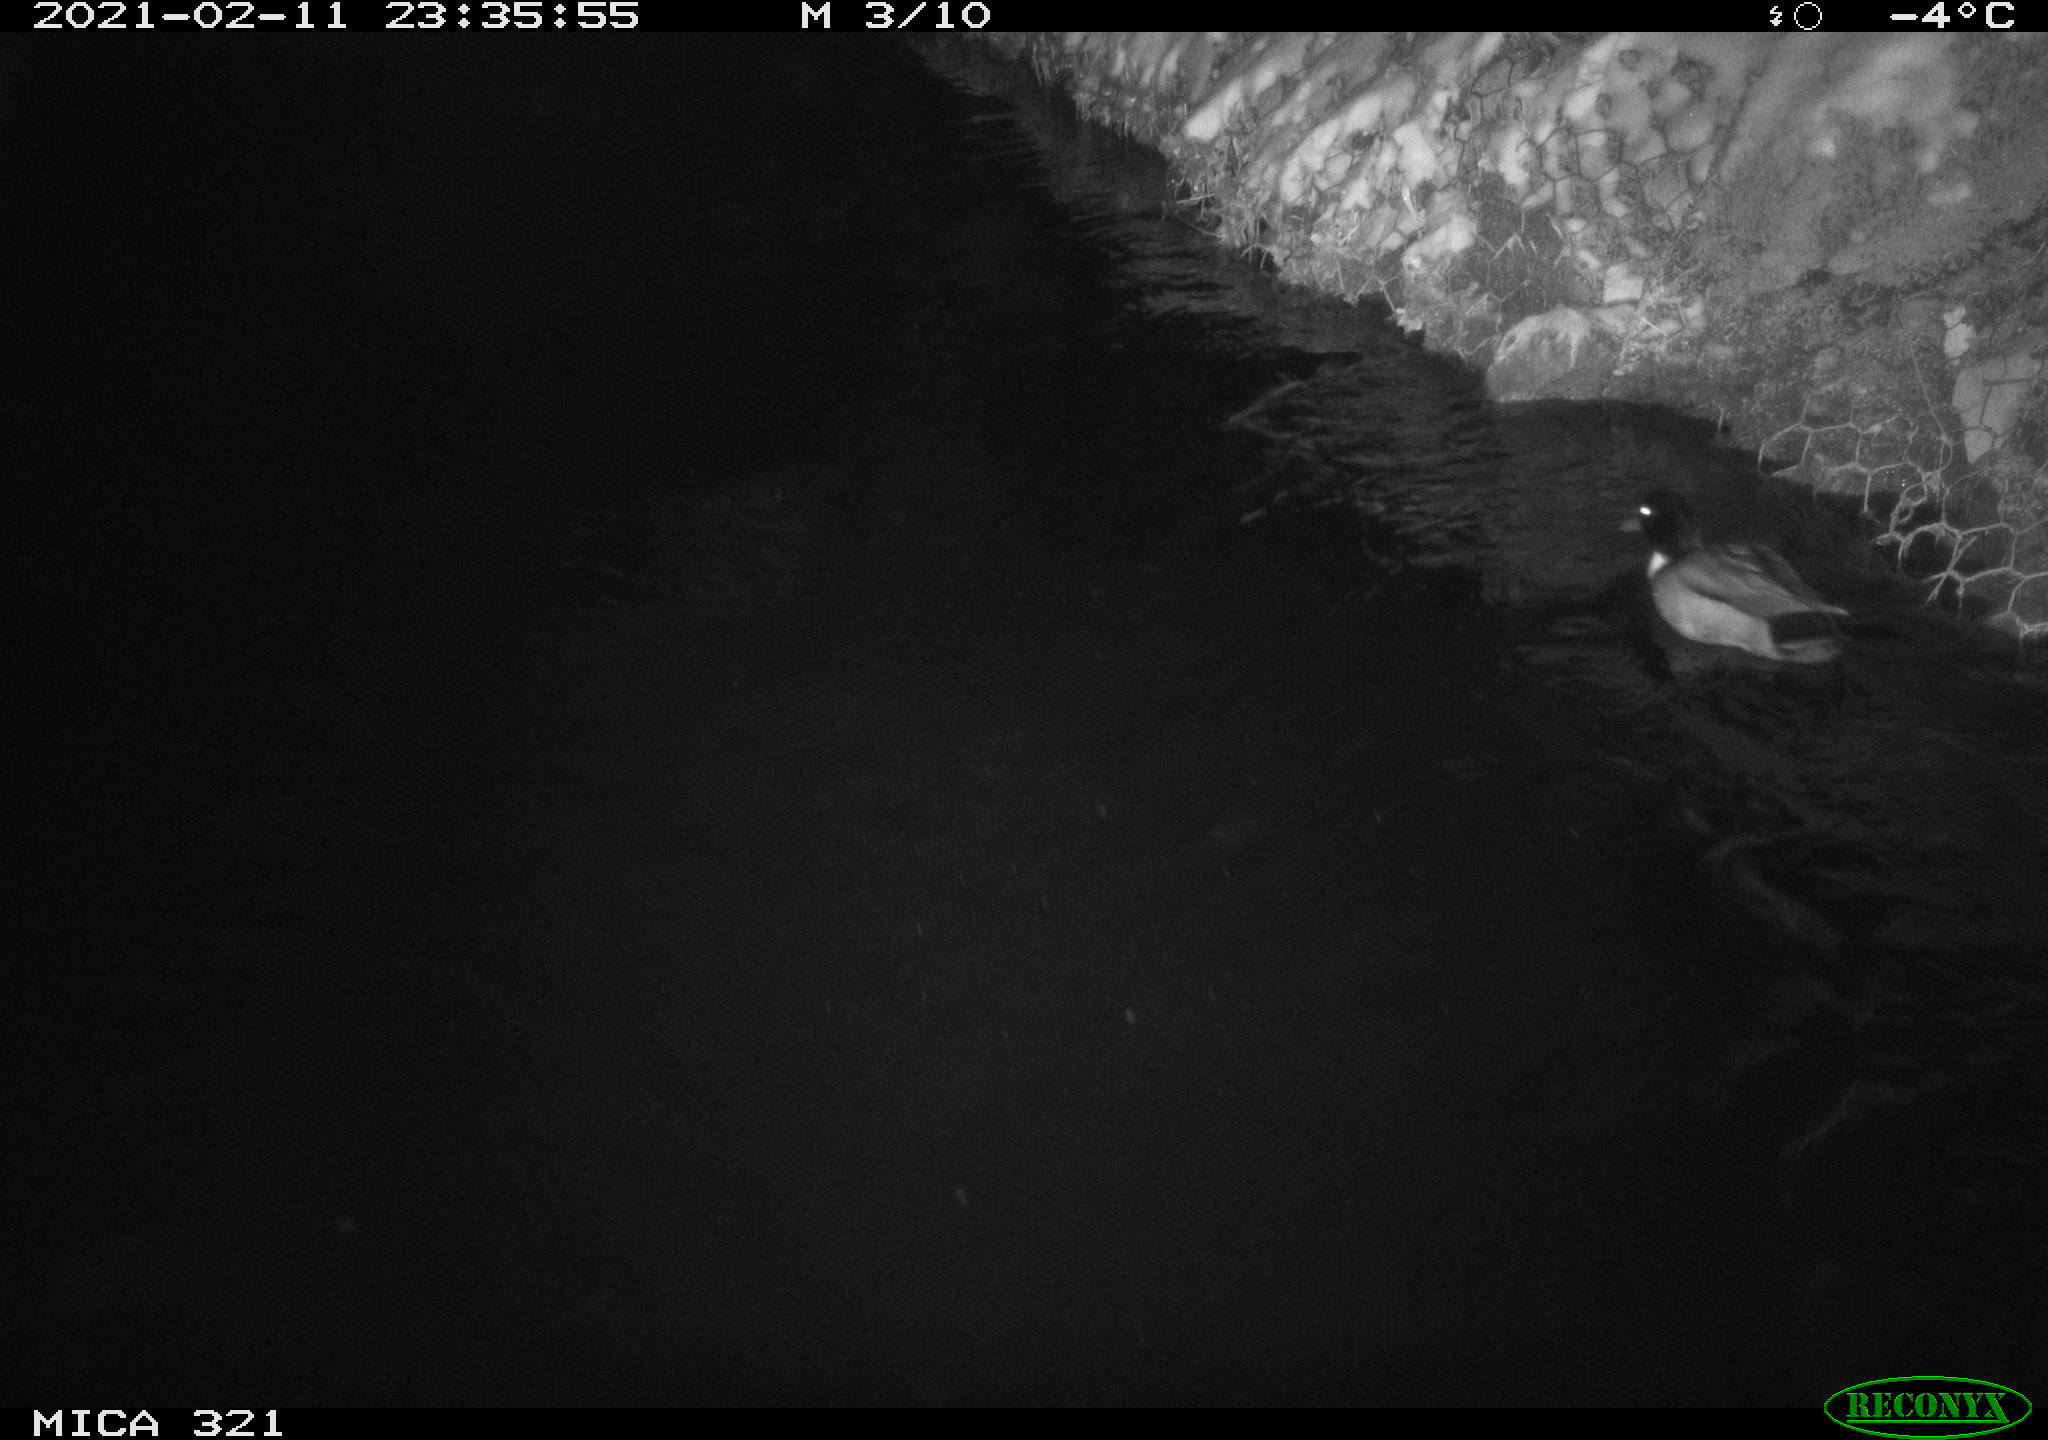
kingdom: Animalia
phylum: Chordata
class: Aves
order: Anseriformes
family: Anatidae
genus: Anas
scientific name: Anas platyrhynchos
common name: Mallard
